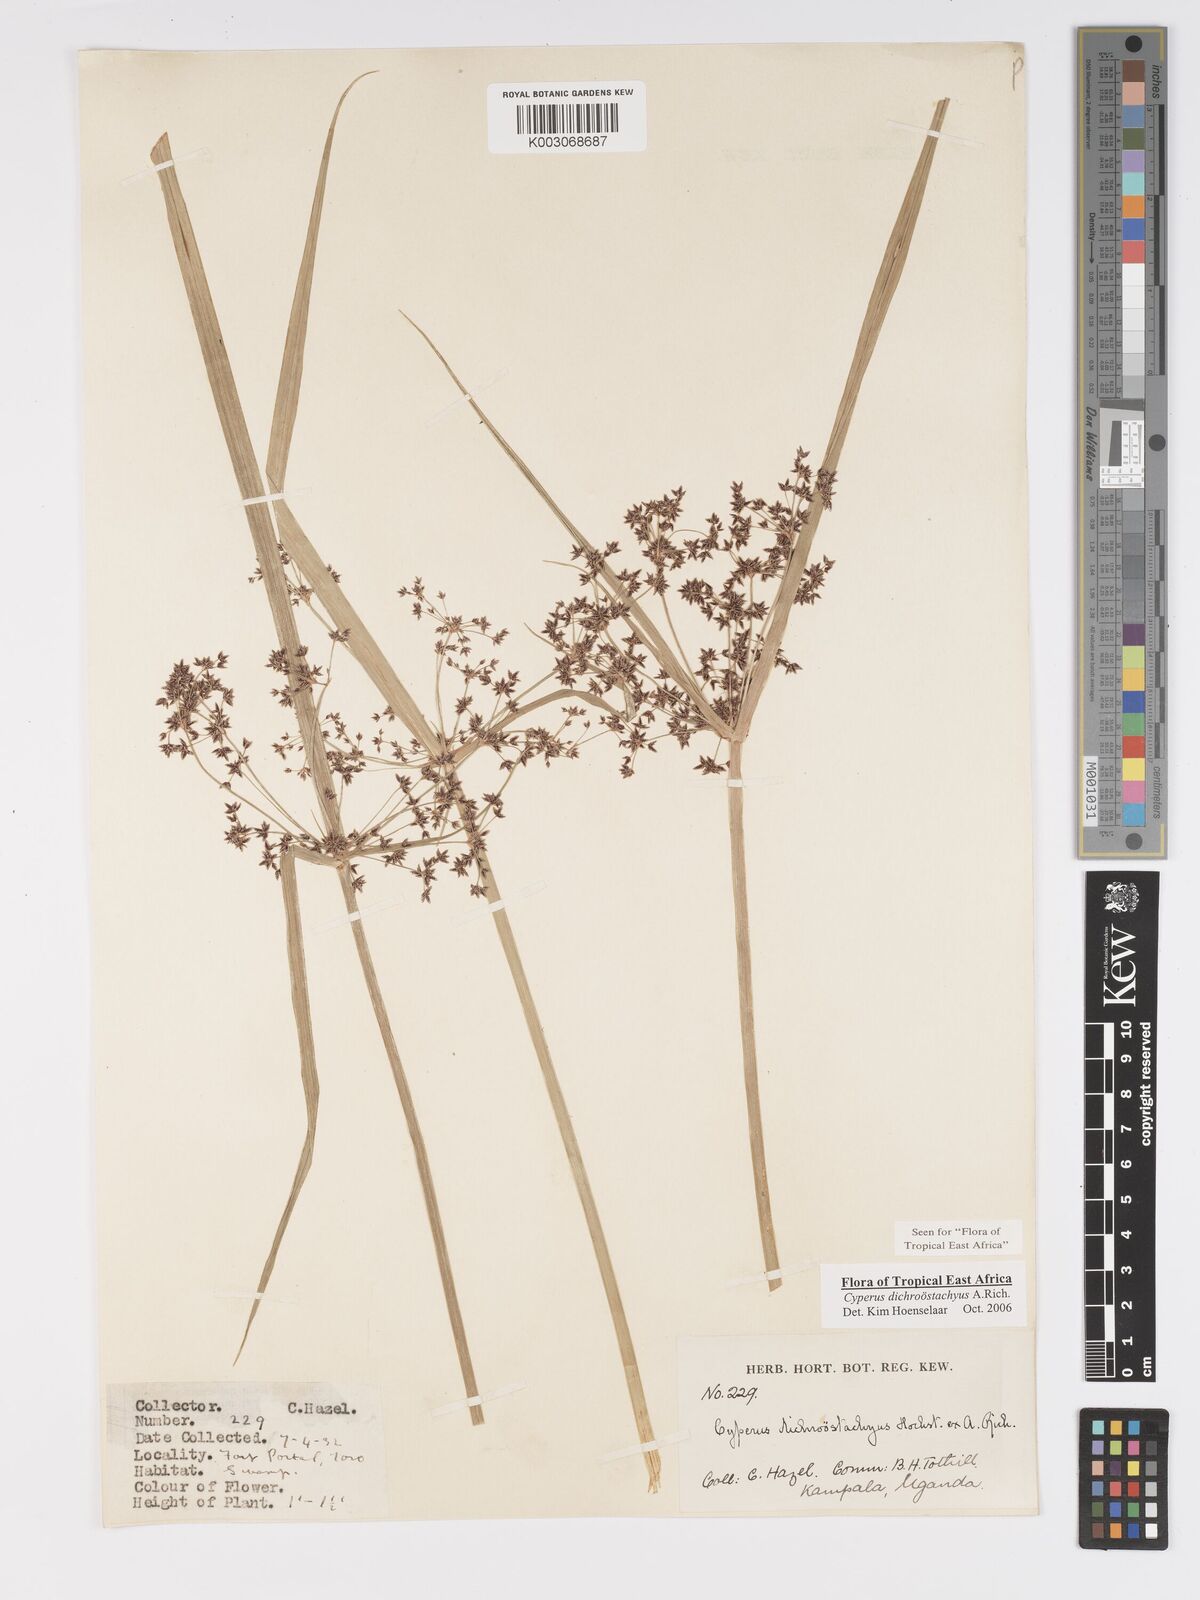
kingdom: Plantae
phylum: Tracheophyta
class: Liliopsida
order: Poales
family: Cyperaceae
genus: Cyperus
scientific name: Cyperus dichrostachyus
